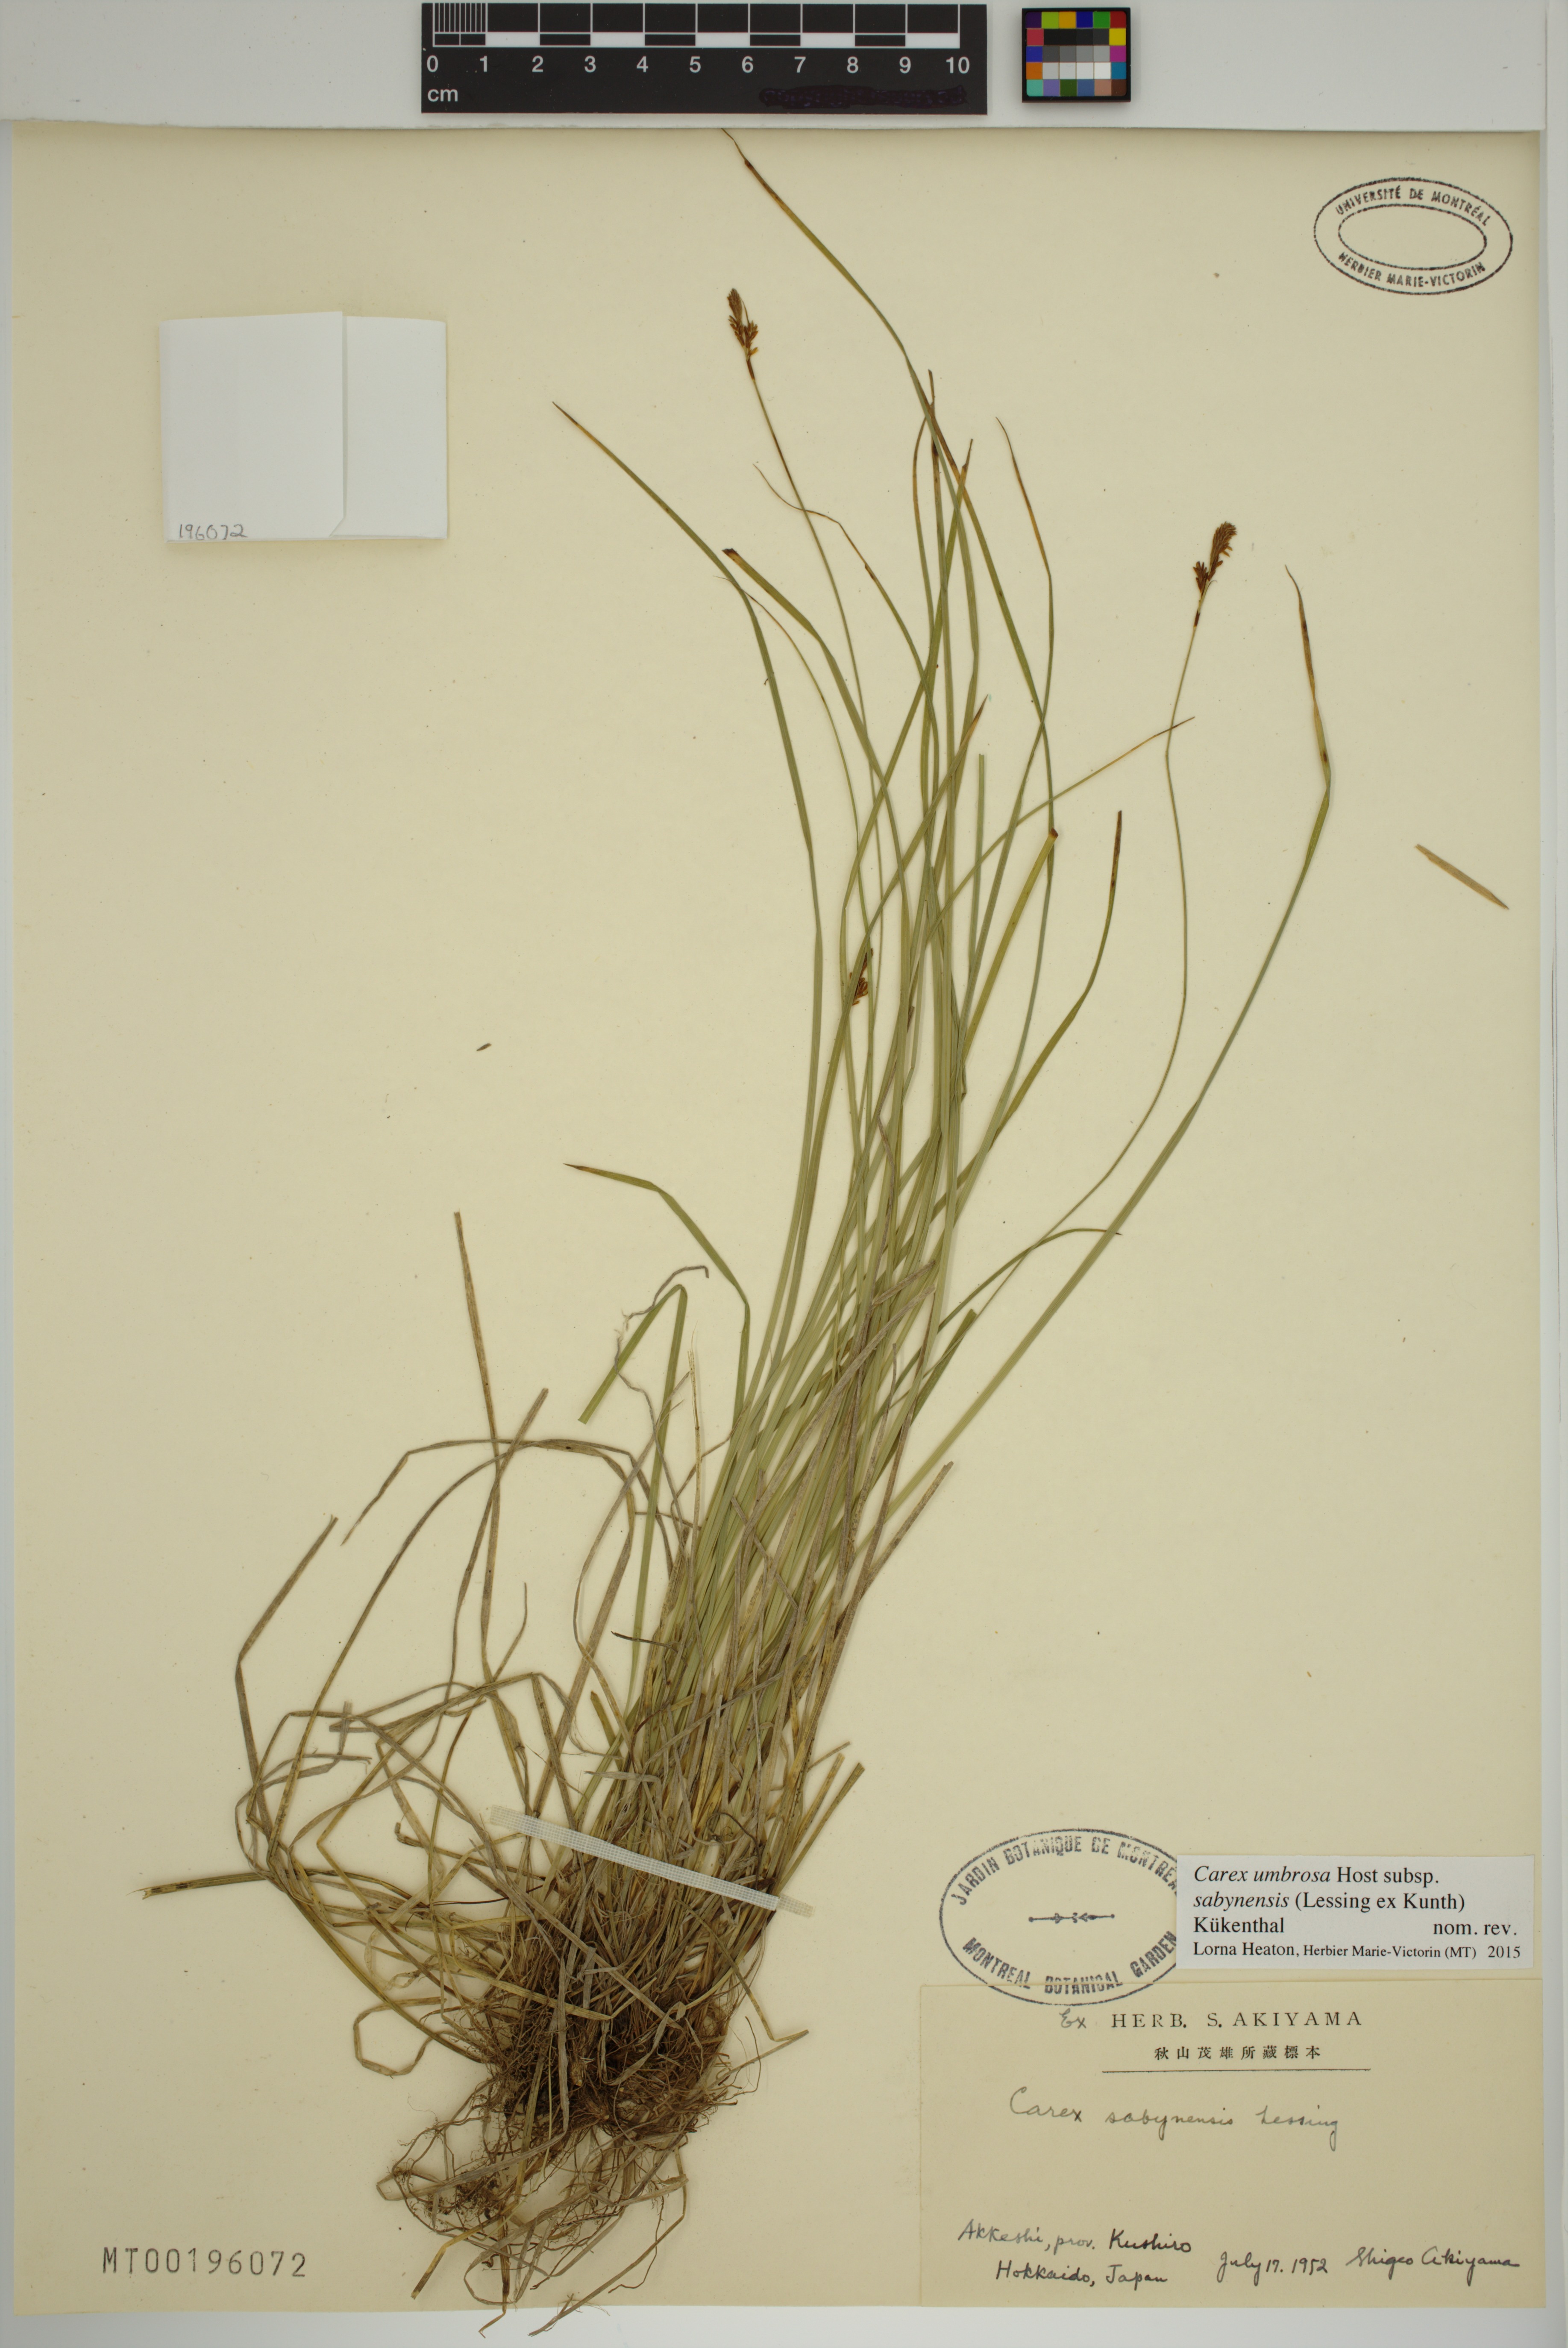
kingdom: Plantae
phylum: Tracheophyta
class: Liliopsida
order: Poales
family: Cyperaceae
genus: Carex
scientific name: Carex umbrosa
